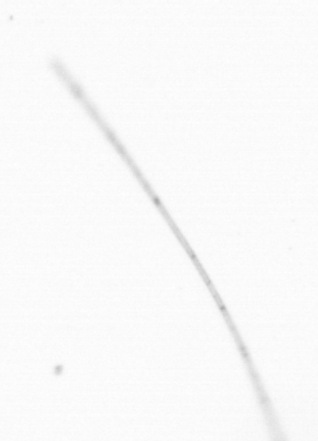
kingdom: Chromista
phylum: Ochrophyta
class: Bacillariophyceae
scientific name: Bacillariophyceae
